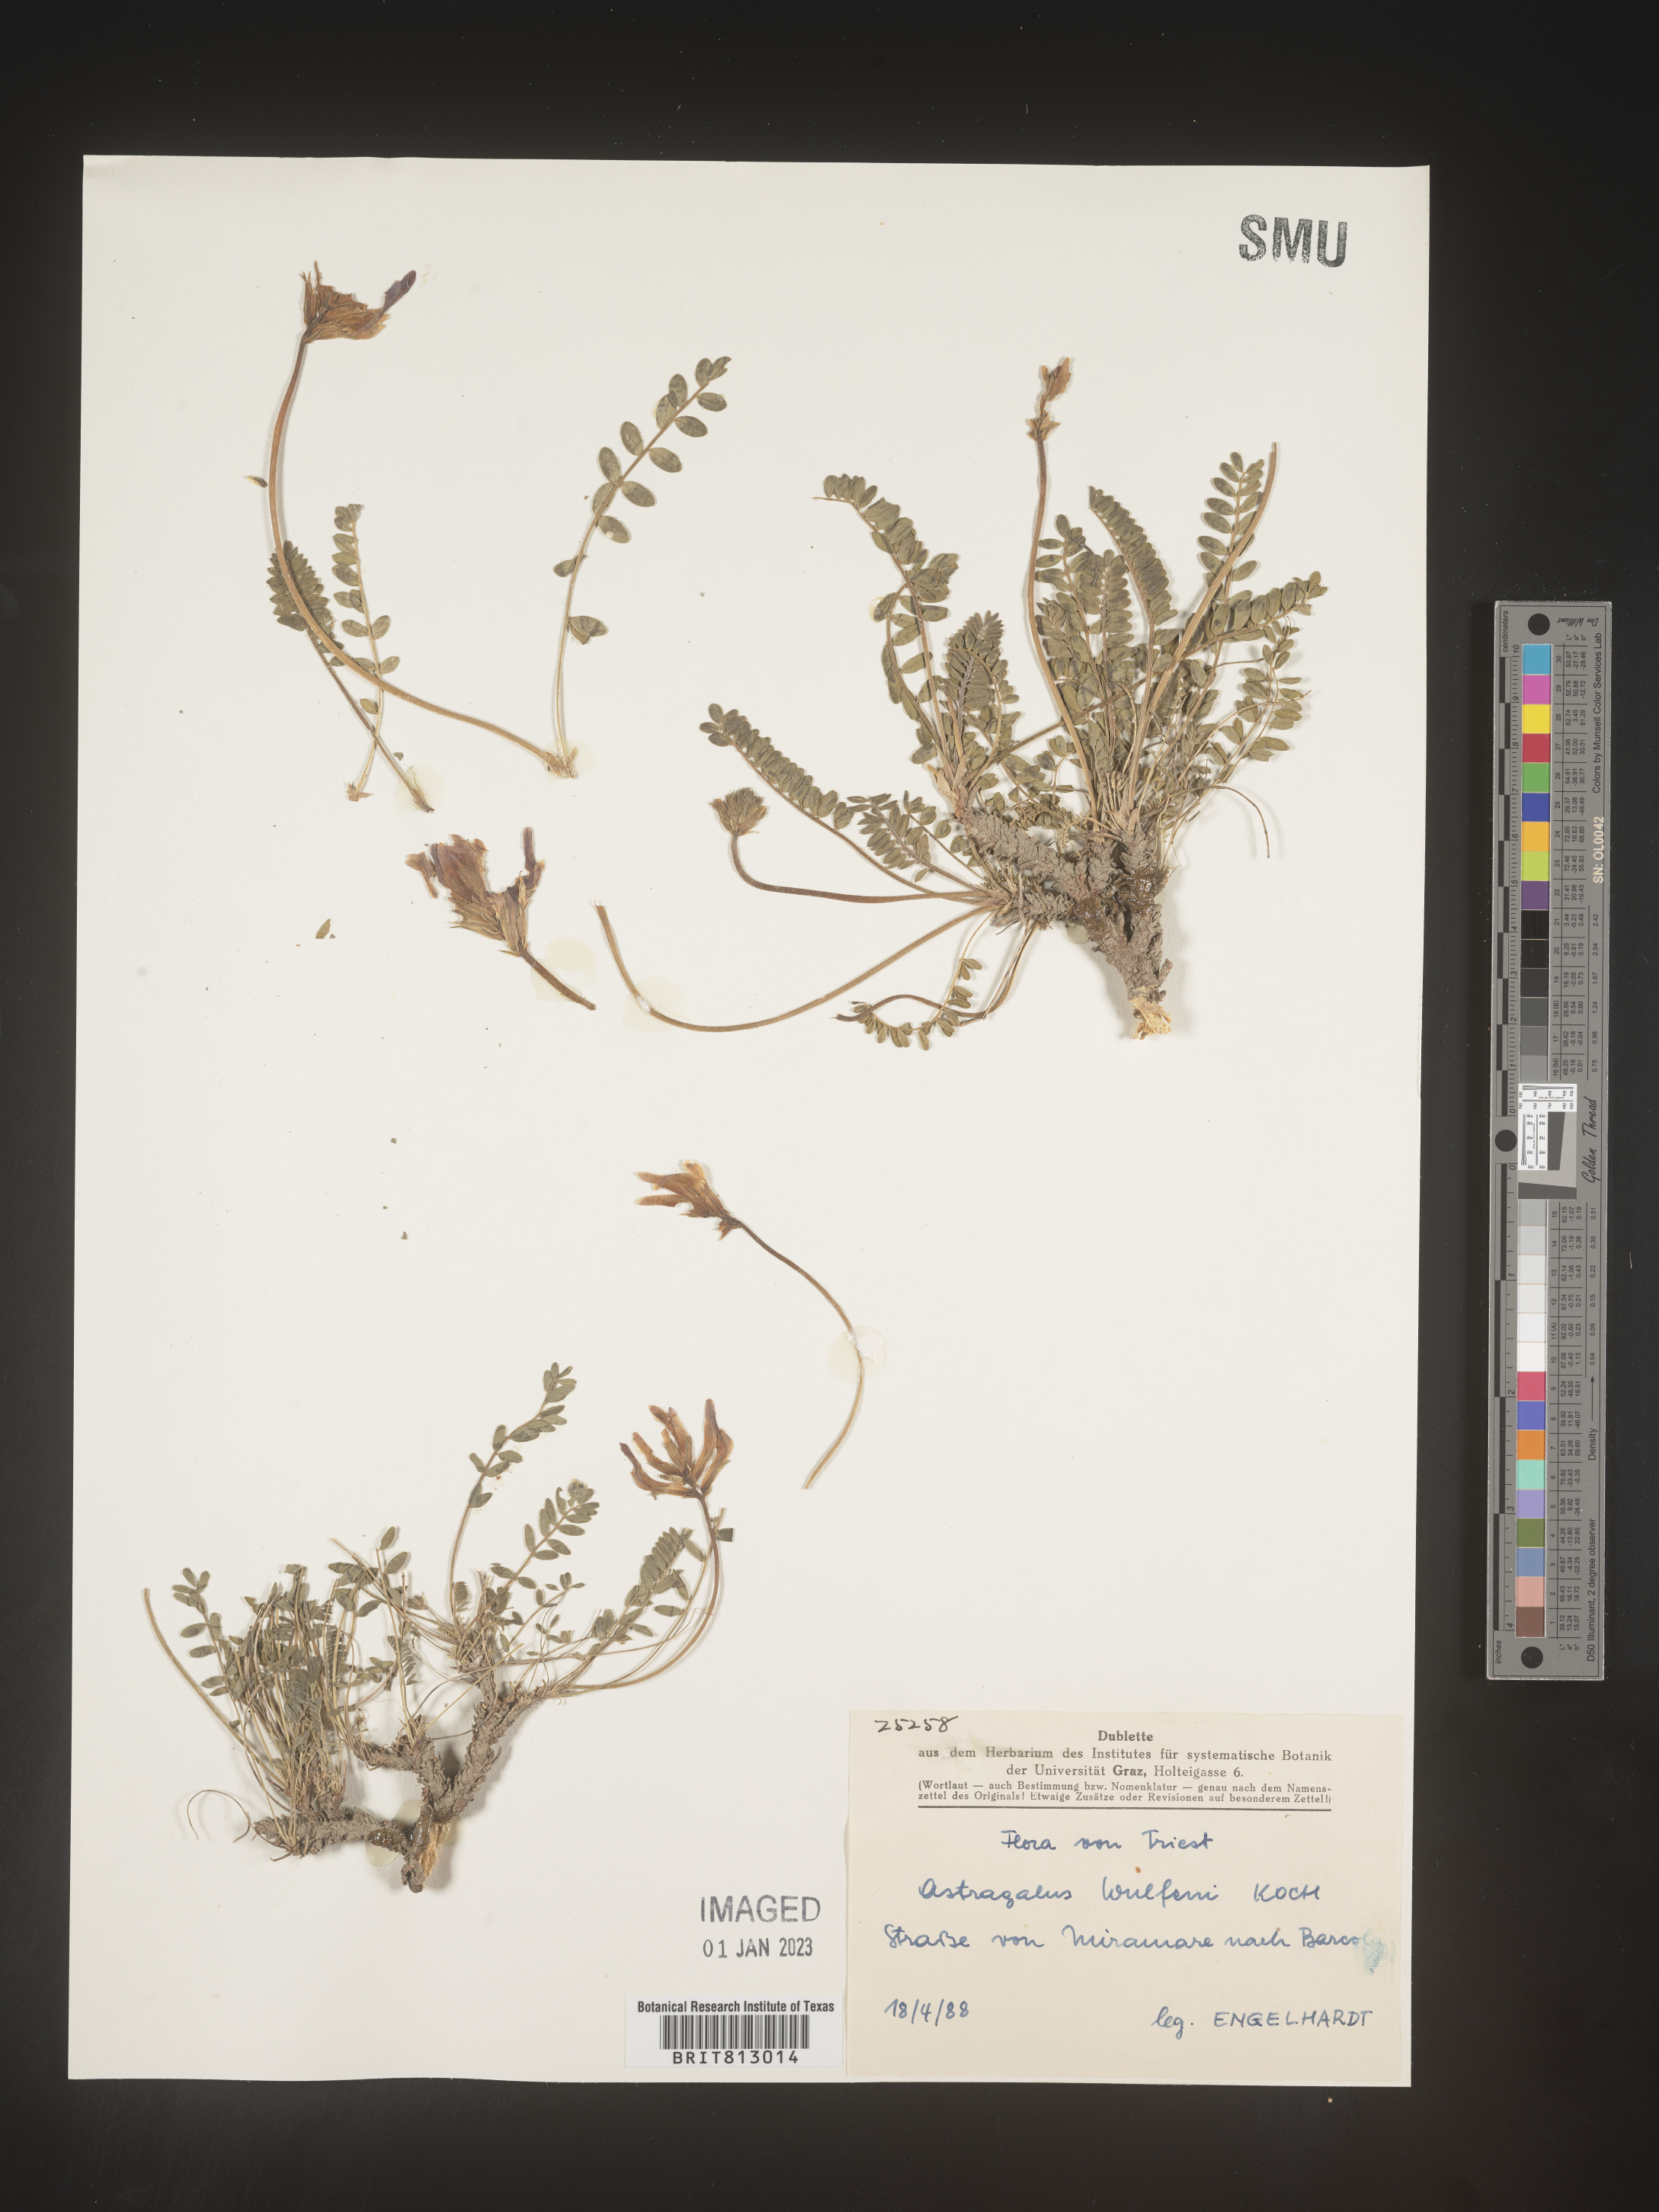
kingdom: Plantae
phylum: Tracheophyta
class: Magnoliopsida
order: Fabales
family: Fabaceae
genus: Astragalus
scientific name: Astragalus
